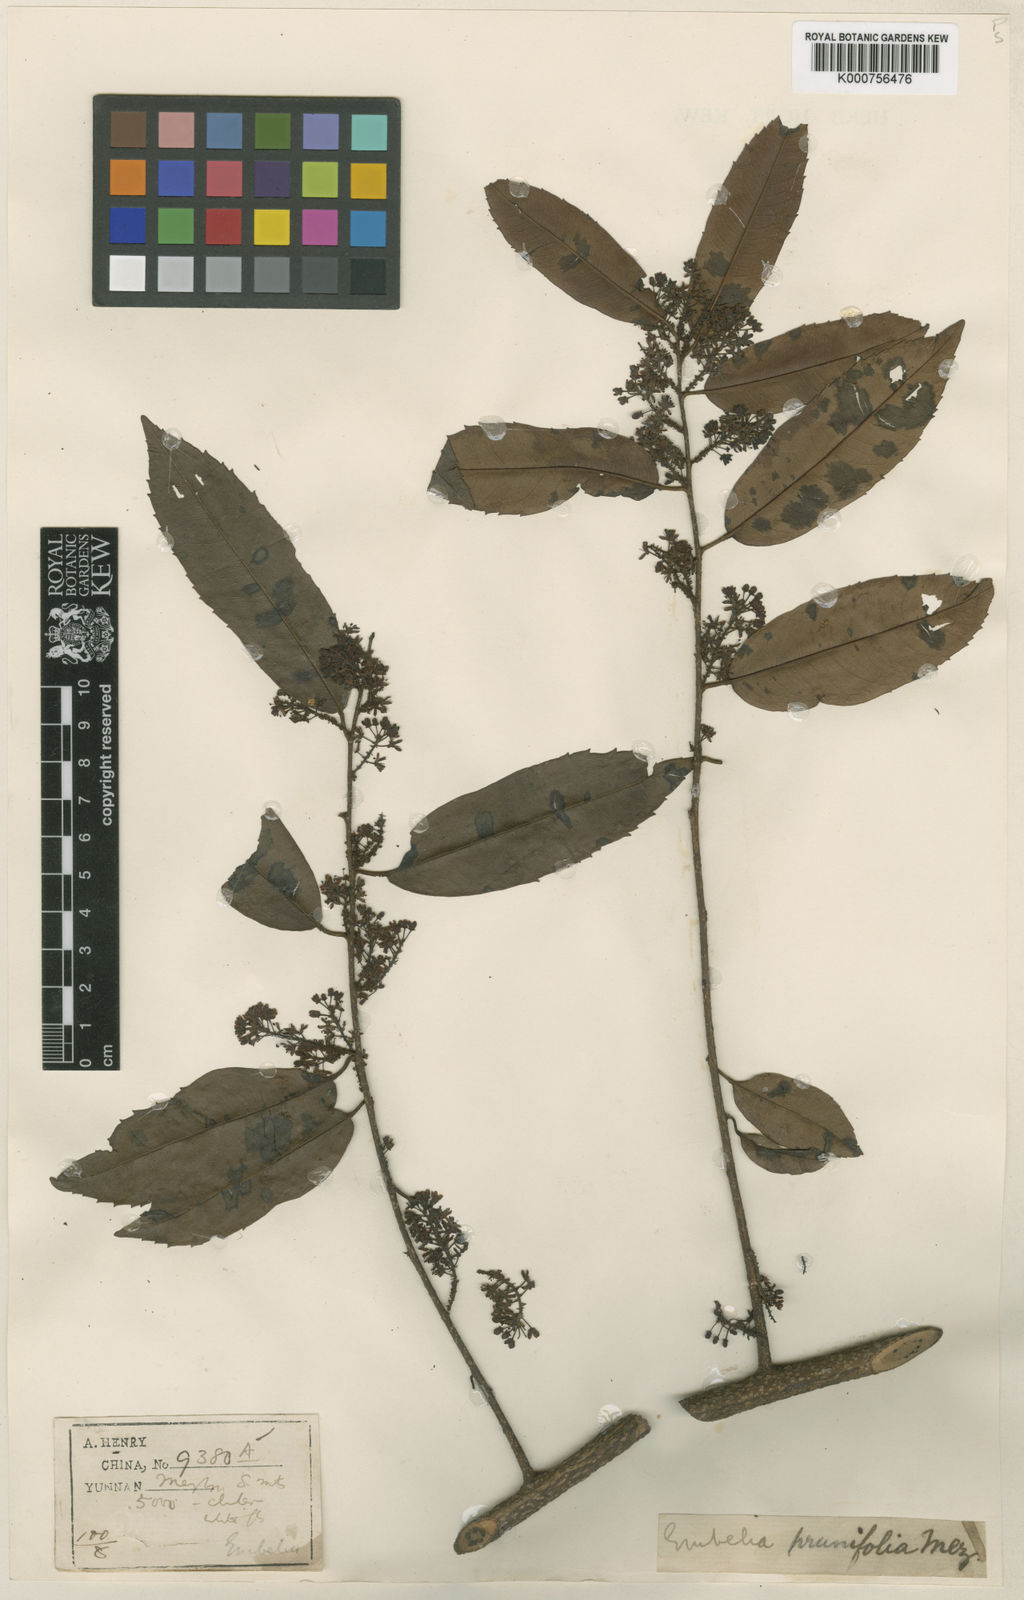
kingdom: Plantae
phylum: Tracheophyta
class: Magnoliopsida
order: Ericales
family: Primulaceae
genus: Embelia
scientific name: Embelia vestita
